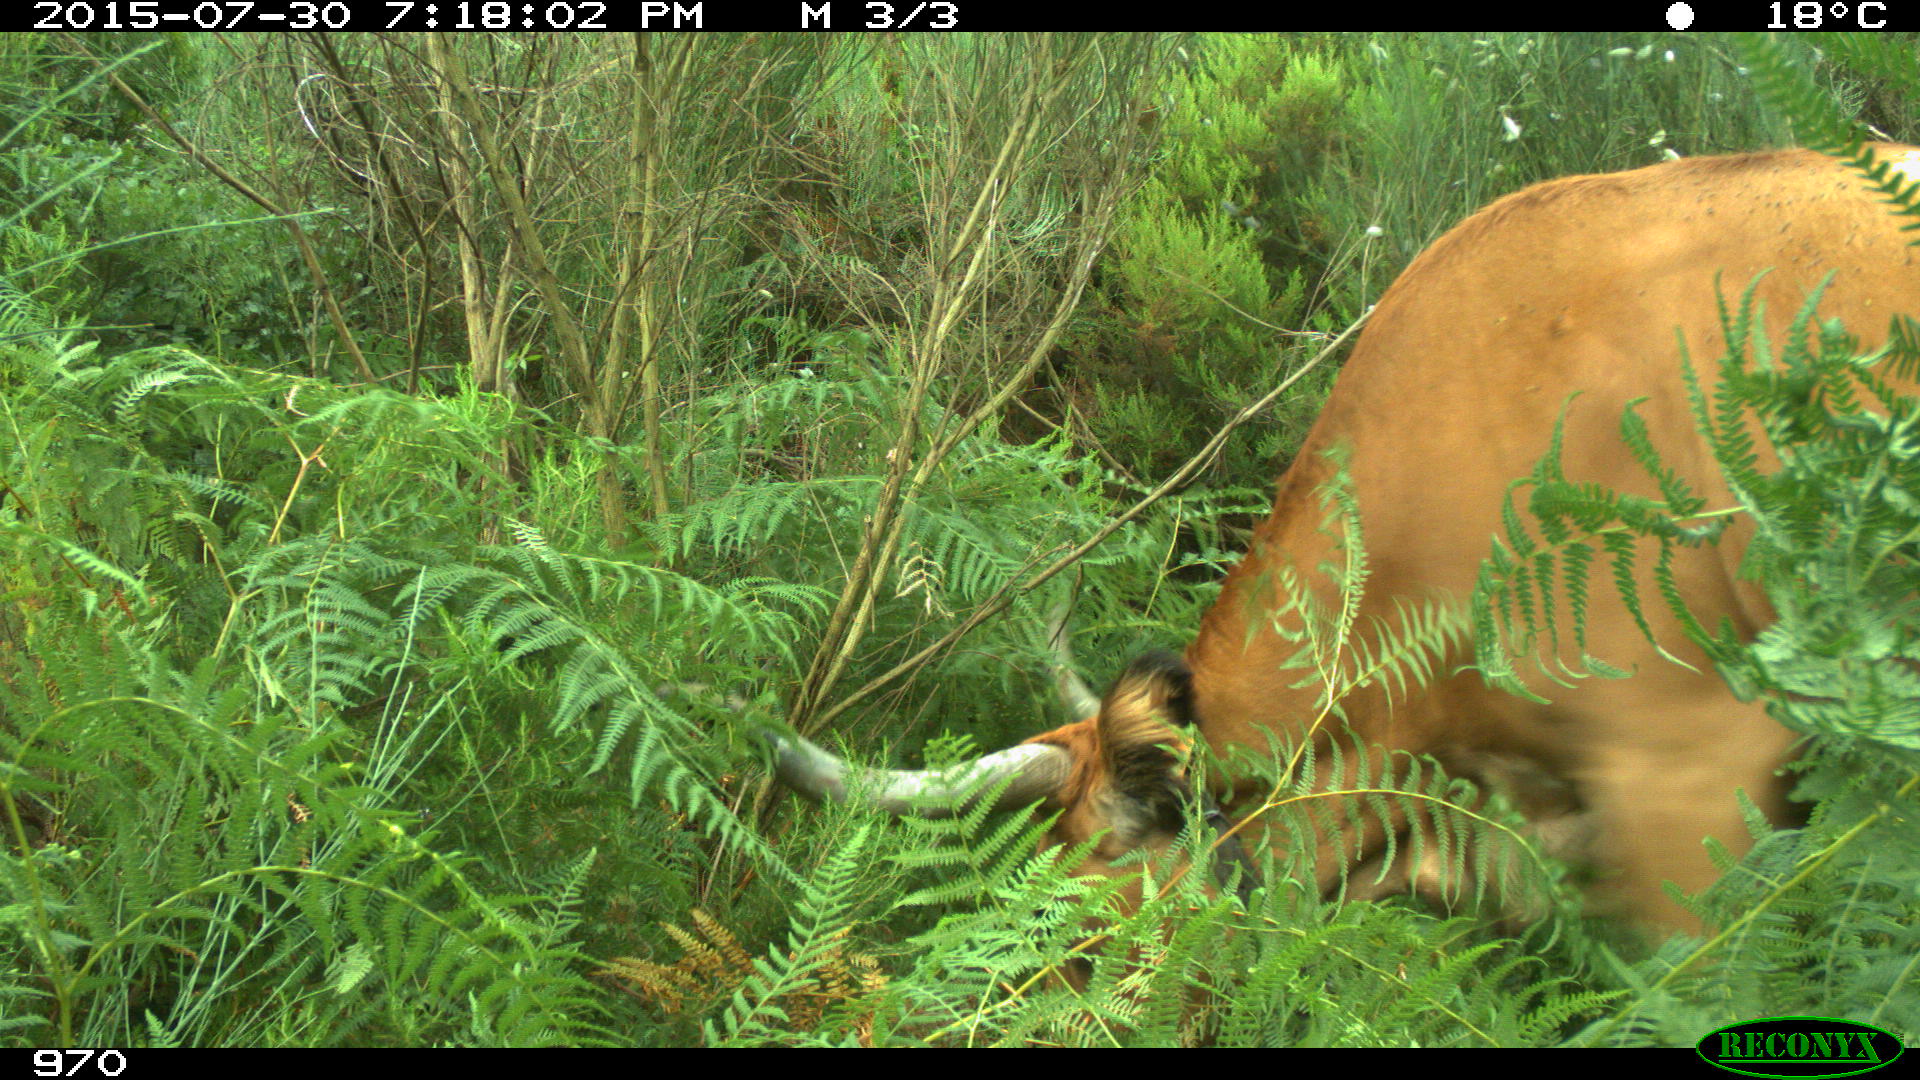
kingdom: Animalia
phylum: Chordata
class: Mammalia
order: Artiodactyla
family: Bovidae
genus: Bos
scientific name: Bos taurus
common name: Domesticated cattle
